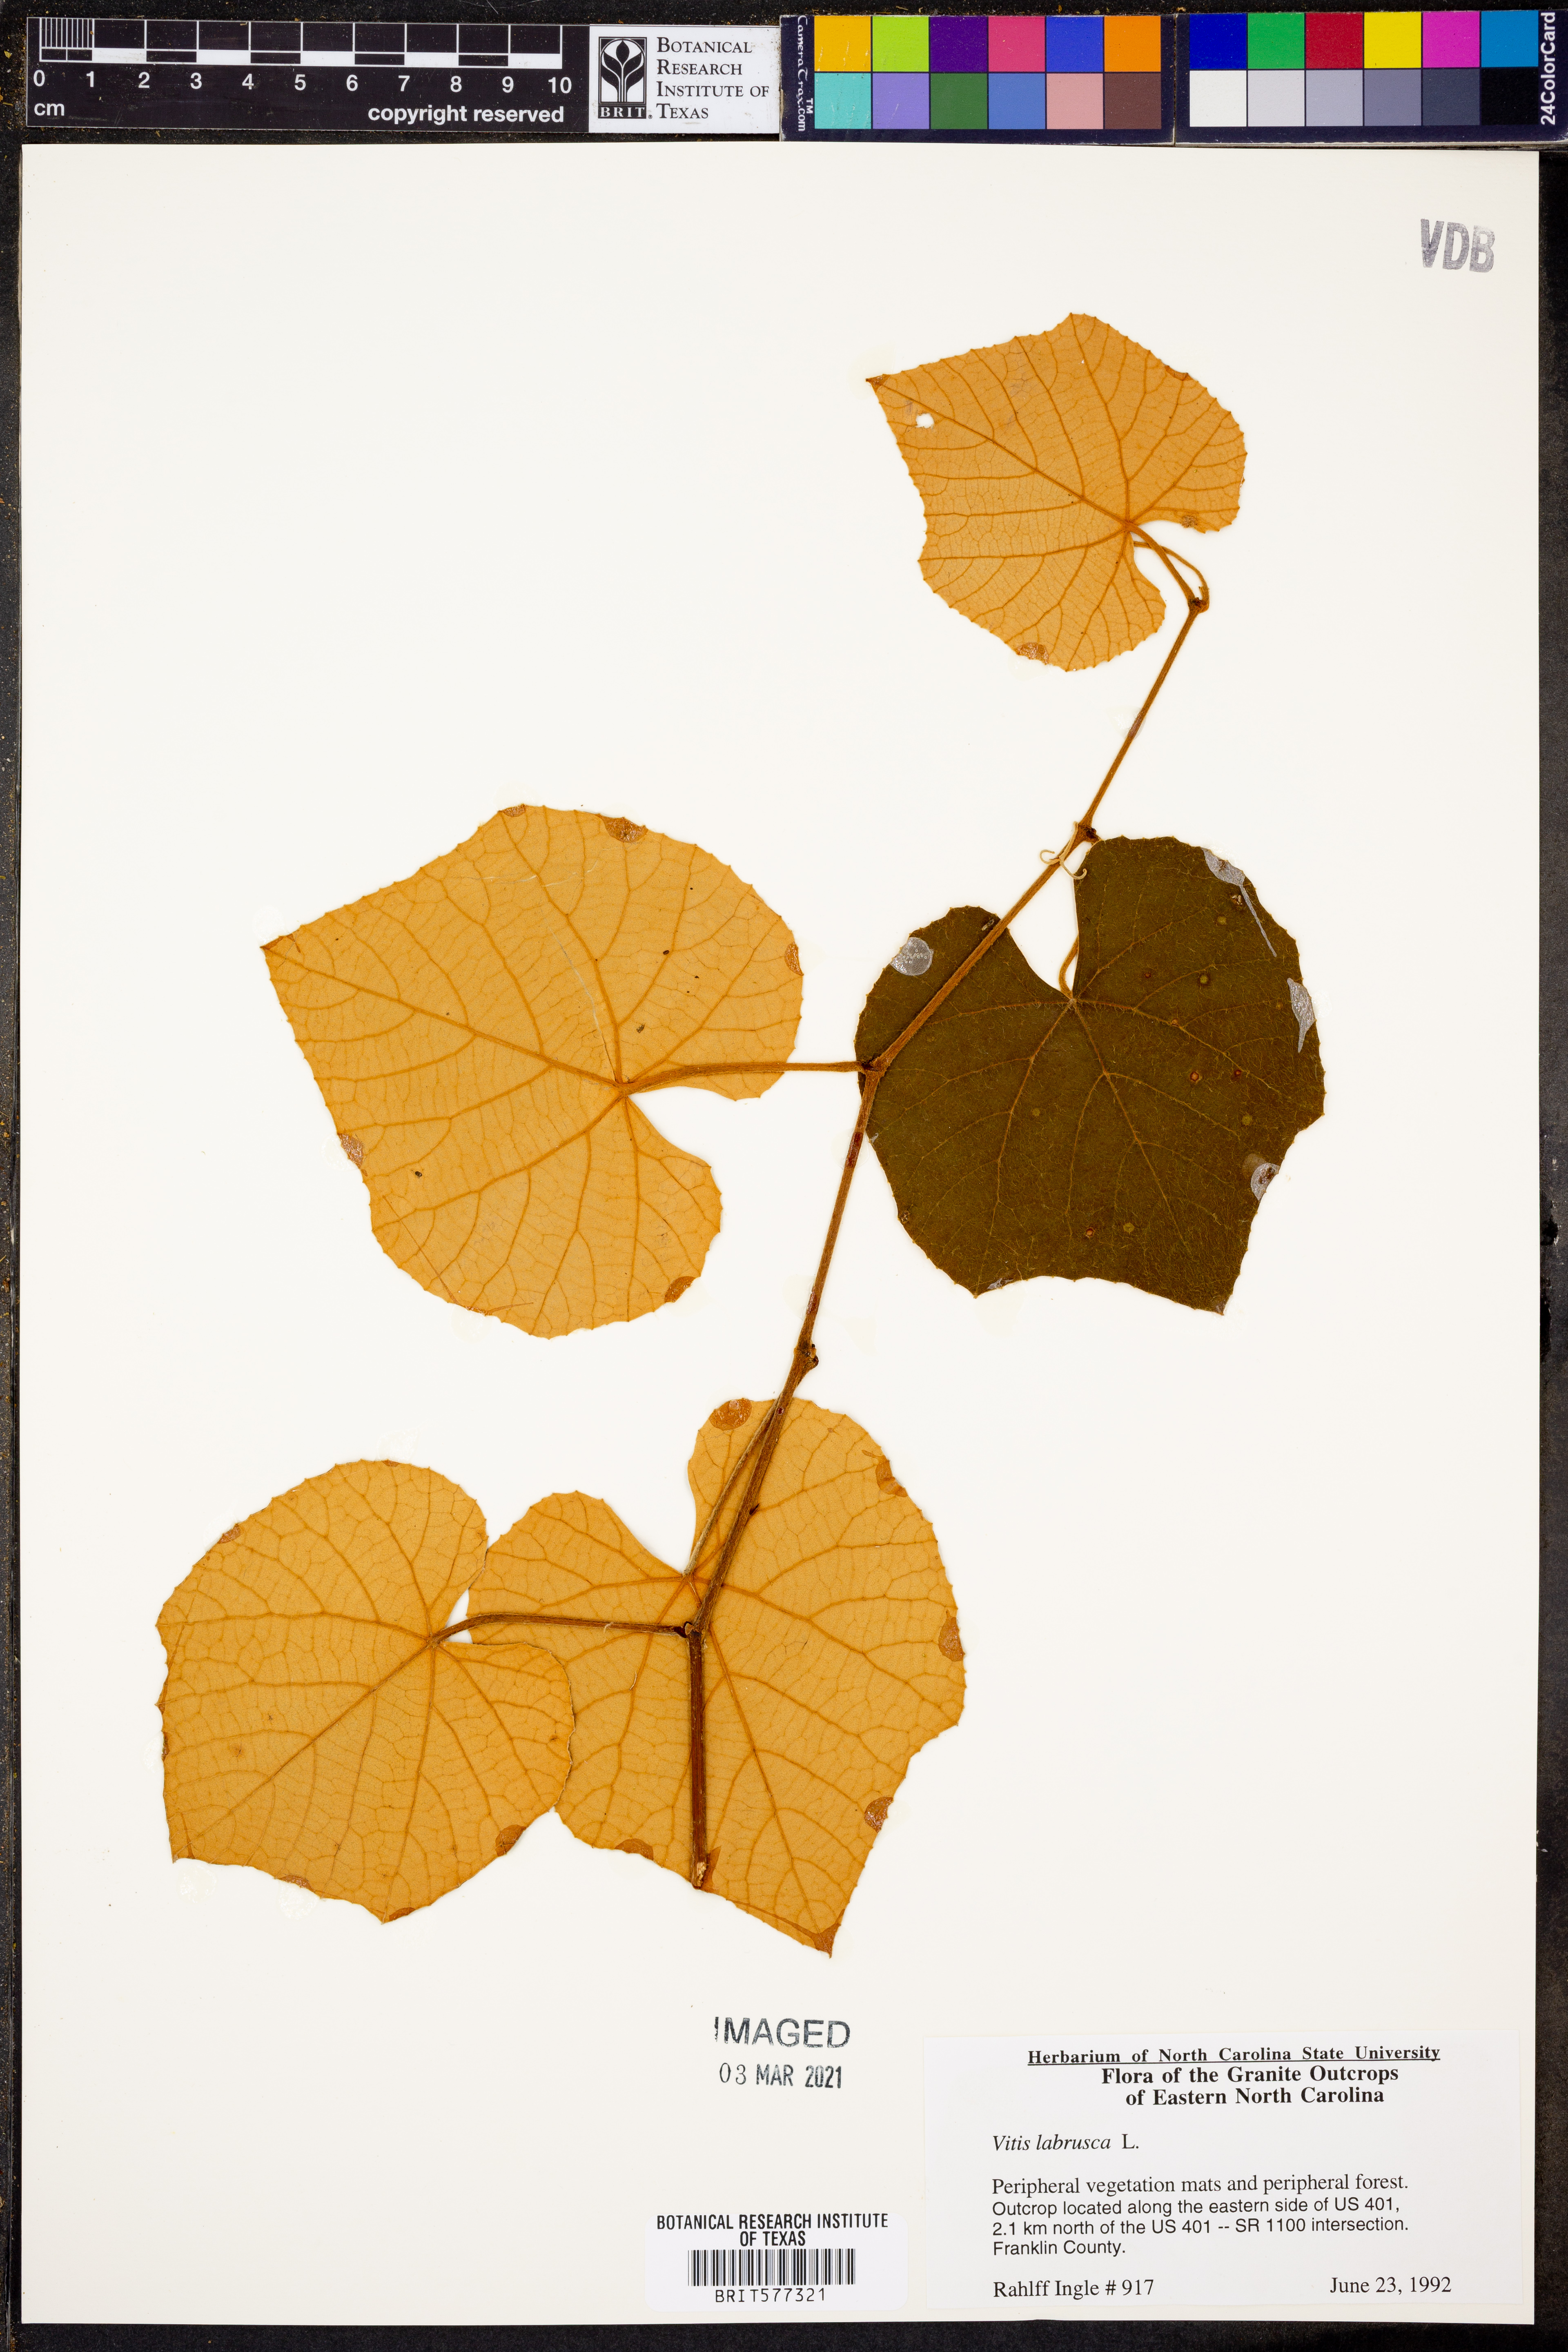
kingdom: Plantae
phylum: Tracheophyta
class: Magnoliopsida
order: Vitales
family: Vitaceae
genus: Vitis
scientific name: Vitis labrusca
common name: Concord grape
